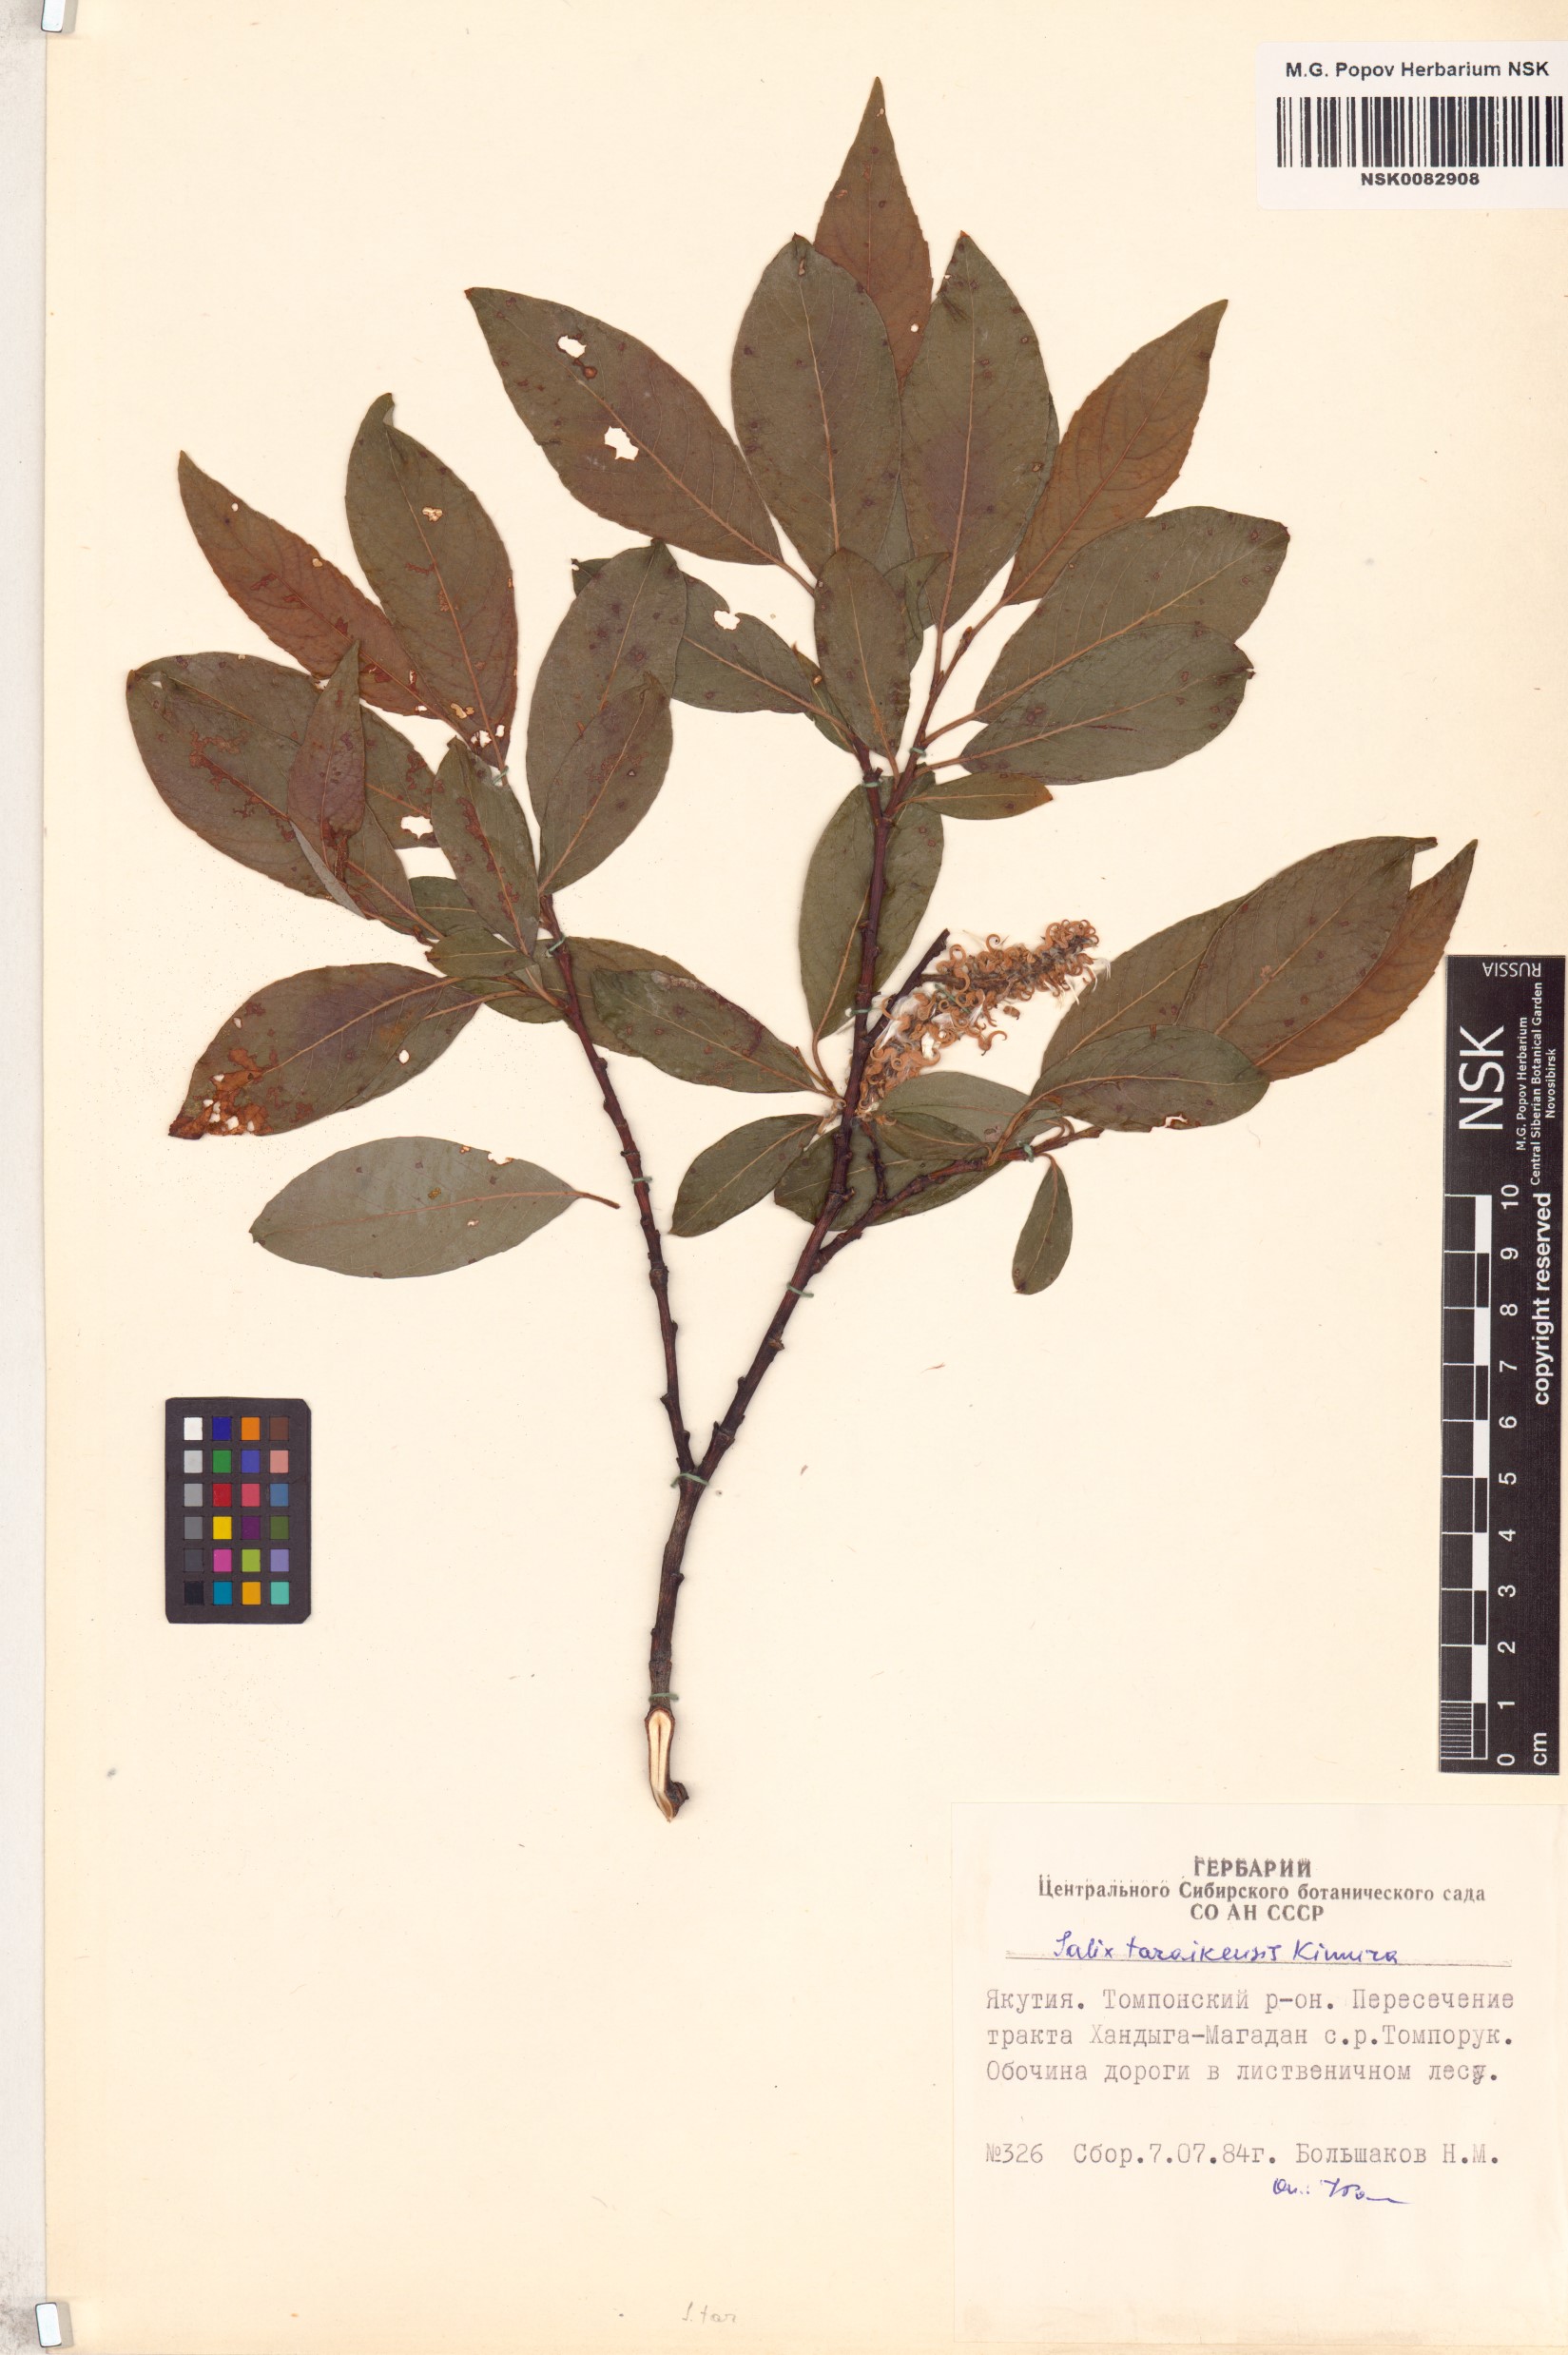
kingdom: Plantae
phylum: Tracheophyta
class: Magnoliopsida
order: Malpighiales
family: Salicaceae
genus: Salix
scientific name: Salix taraikensis
